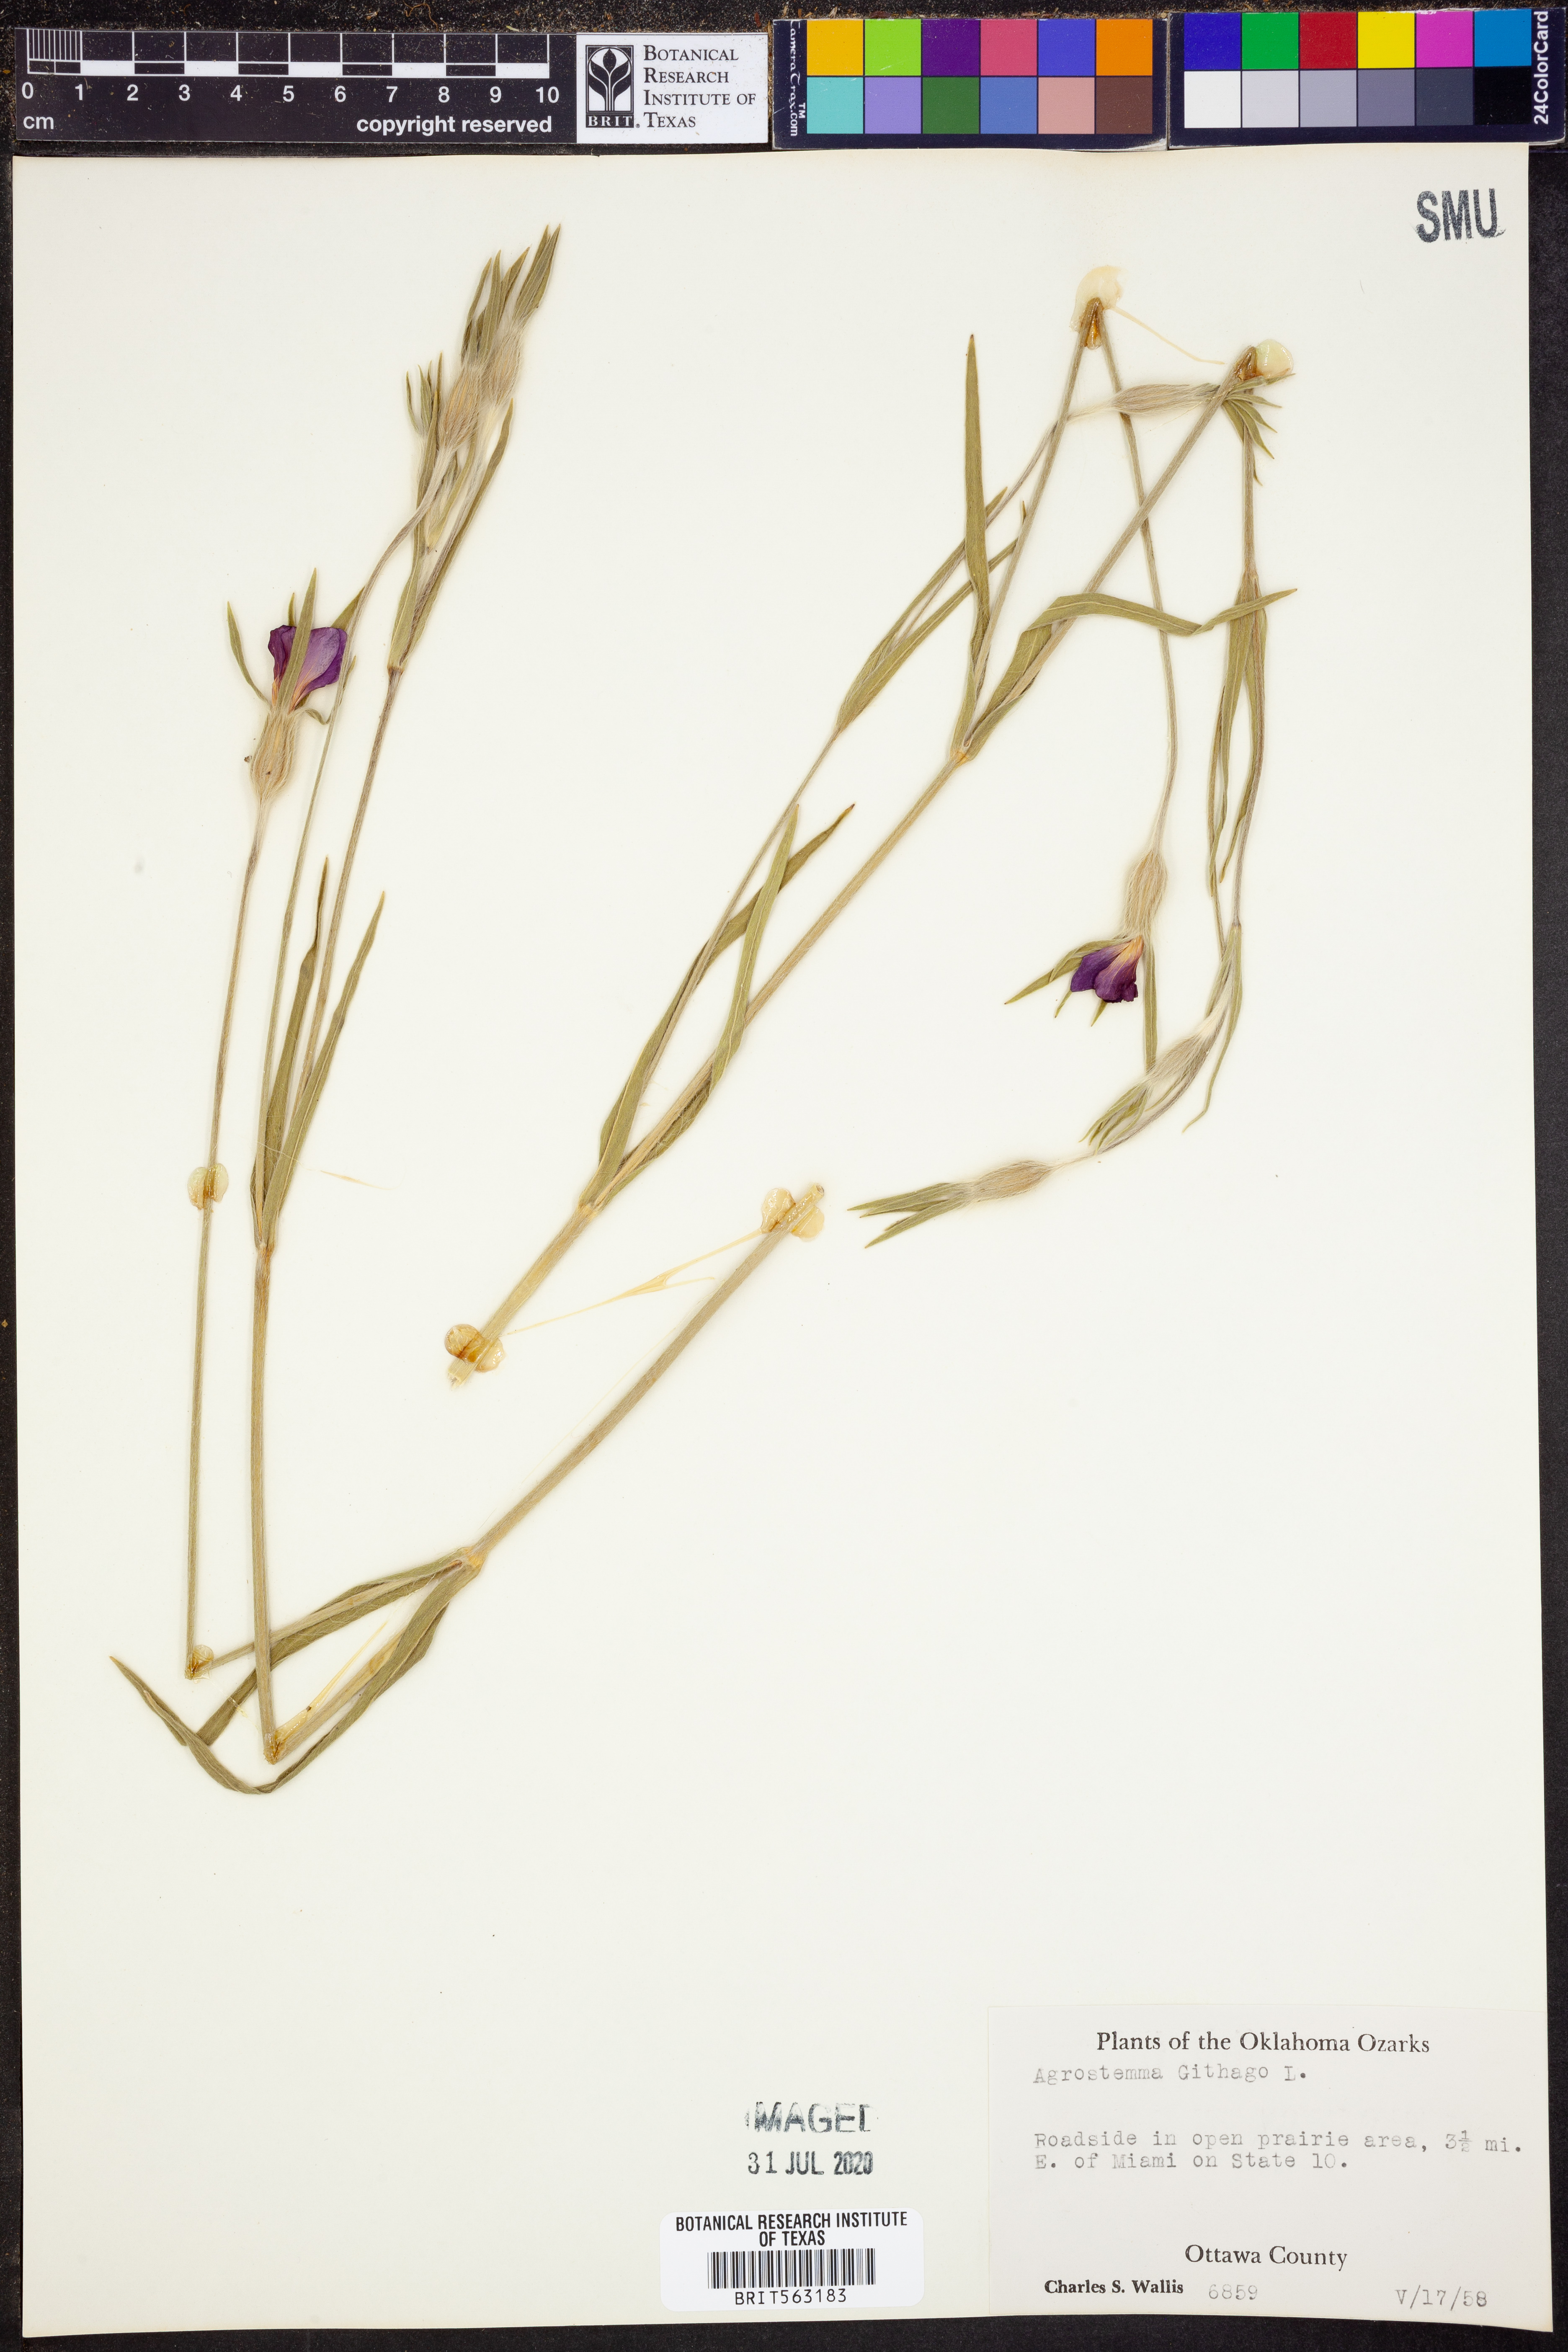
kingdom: Plantae
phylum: Tracheophyta
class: Magnoliopsida
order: Caryophyllales
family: Caryophyllaceae
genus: Agrostemma
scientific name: Agrostemma githago
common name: Common corncockle
